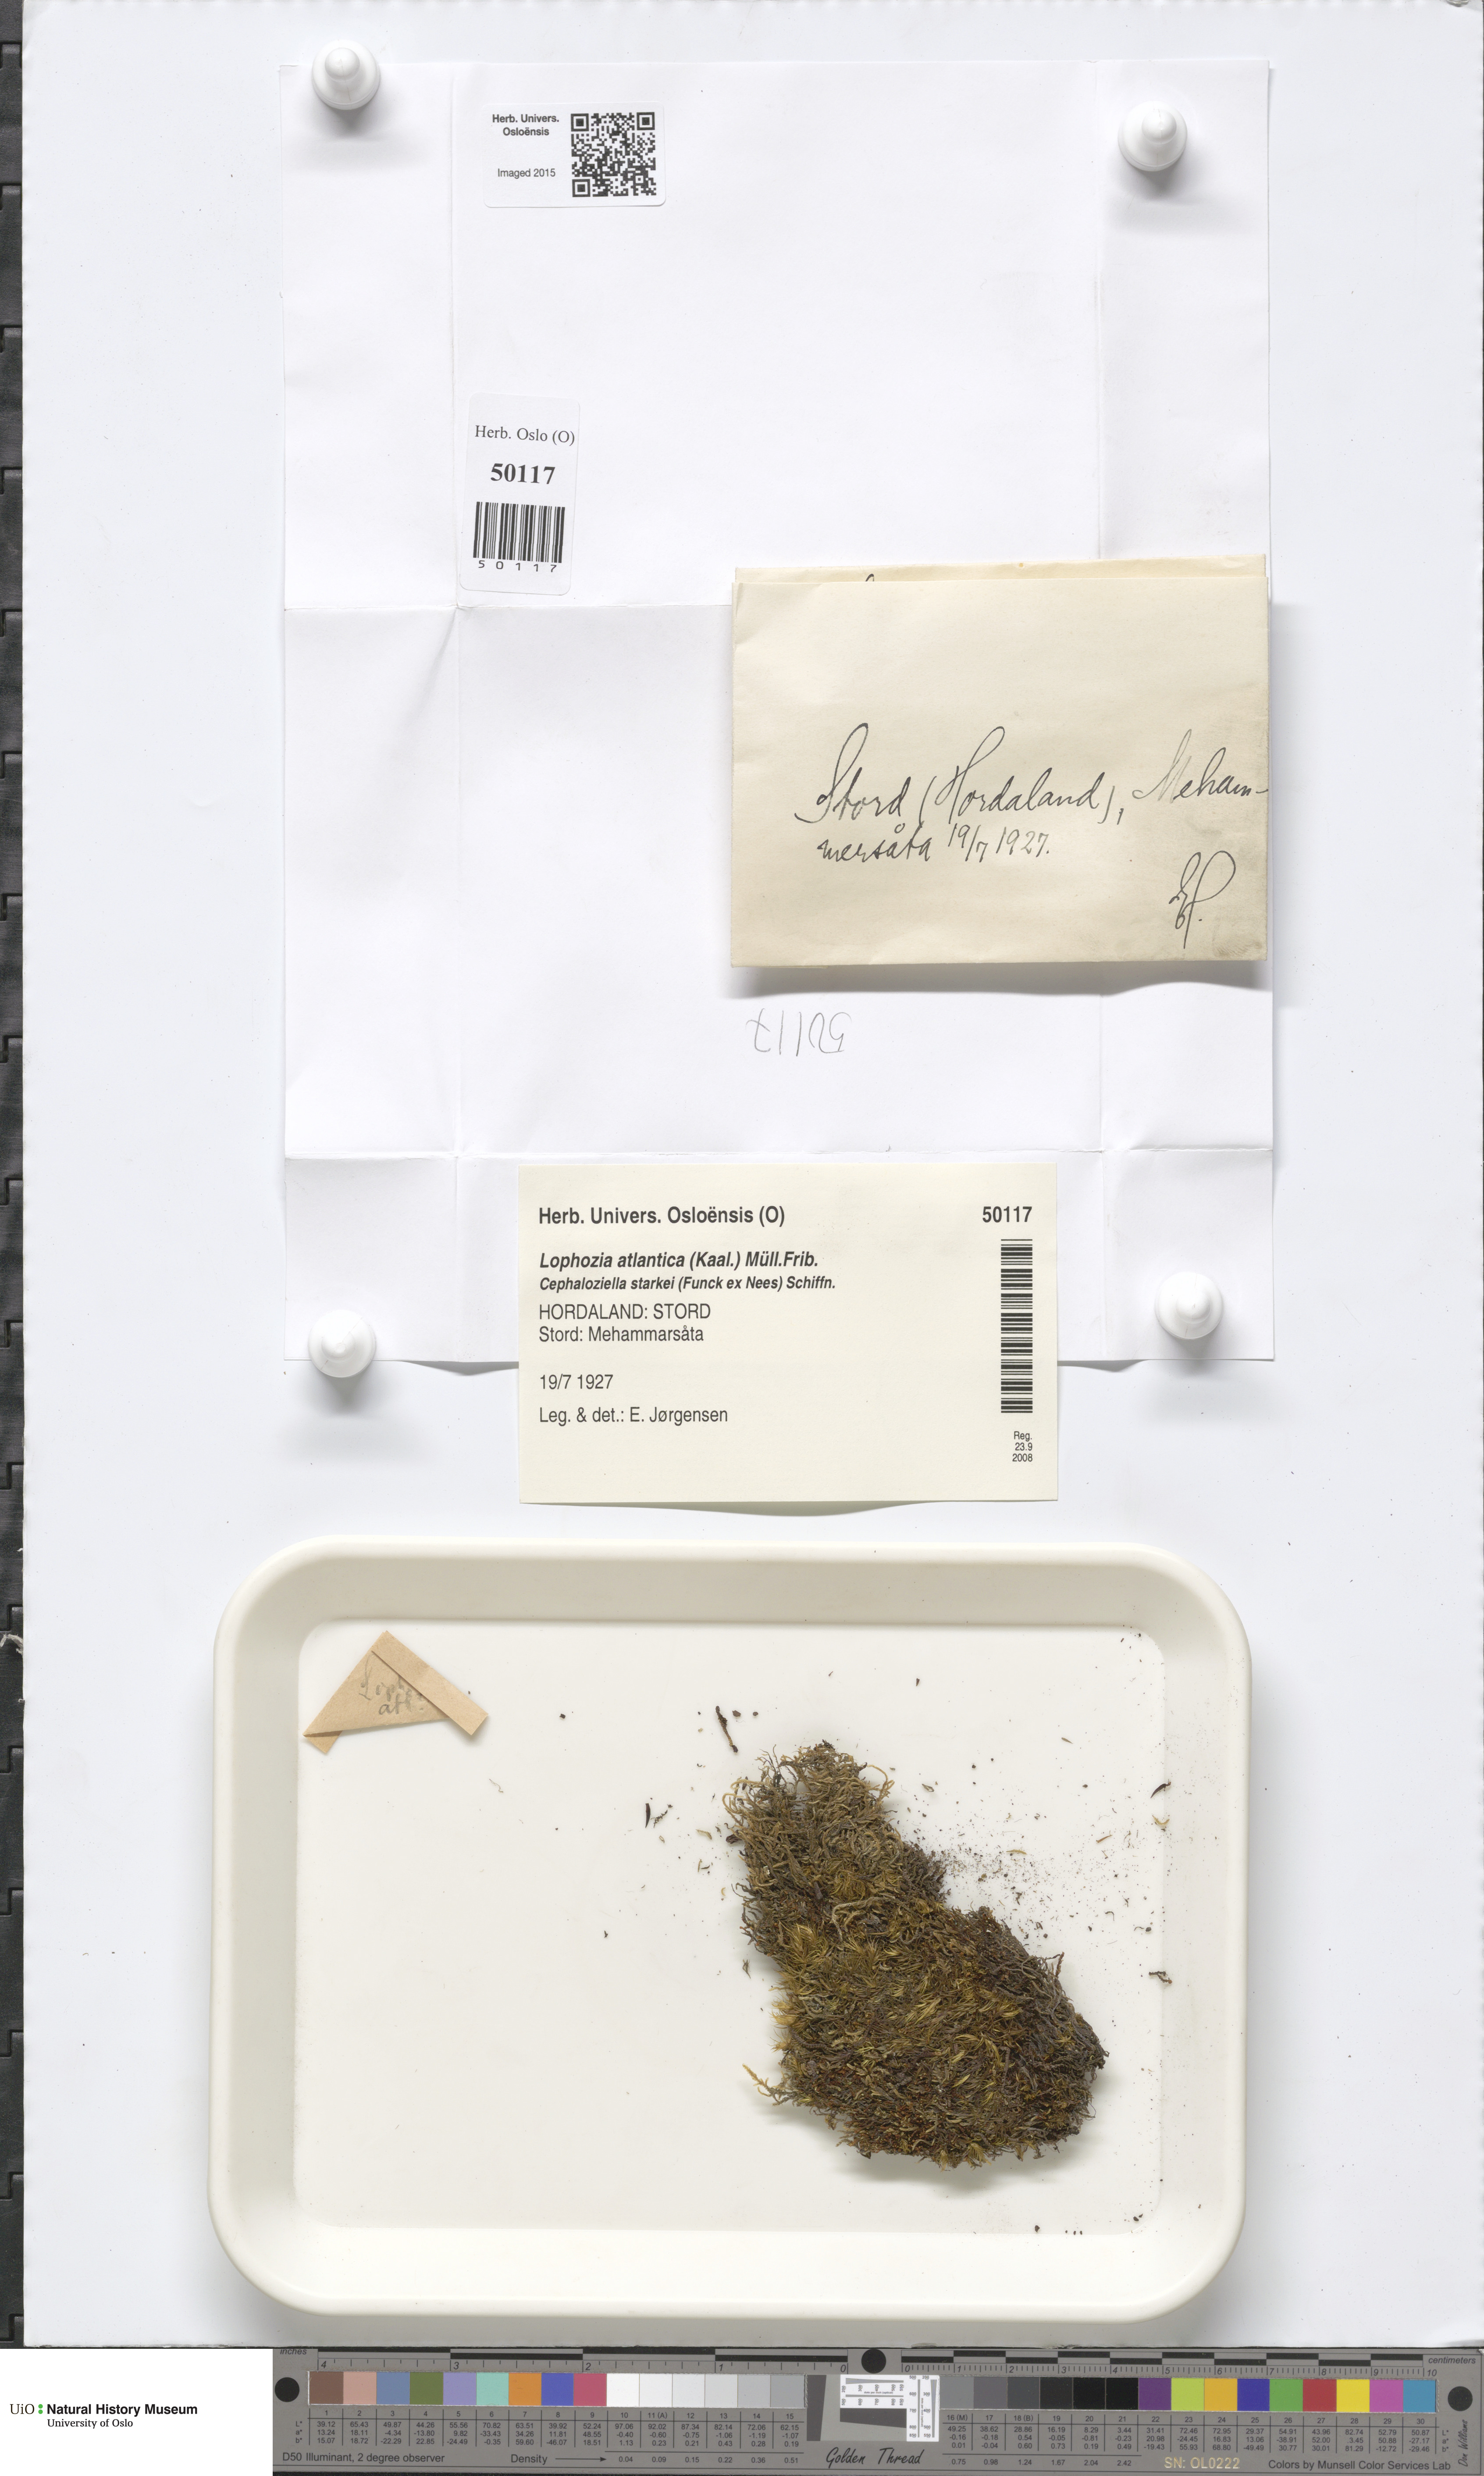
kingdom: Plantae
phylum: Marchantiophyta
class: Jungermanniopsida
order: Jungermanniales
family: Anastrophyllaceae
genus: Orthocaulis
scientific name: Orthocaulis atlanticus
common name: Atlantic pawwort
